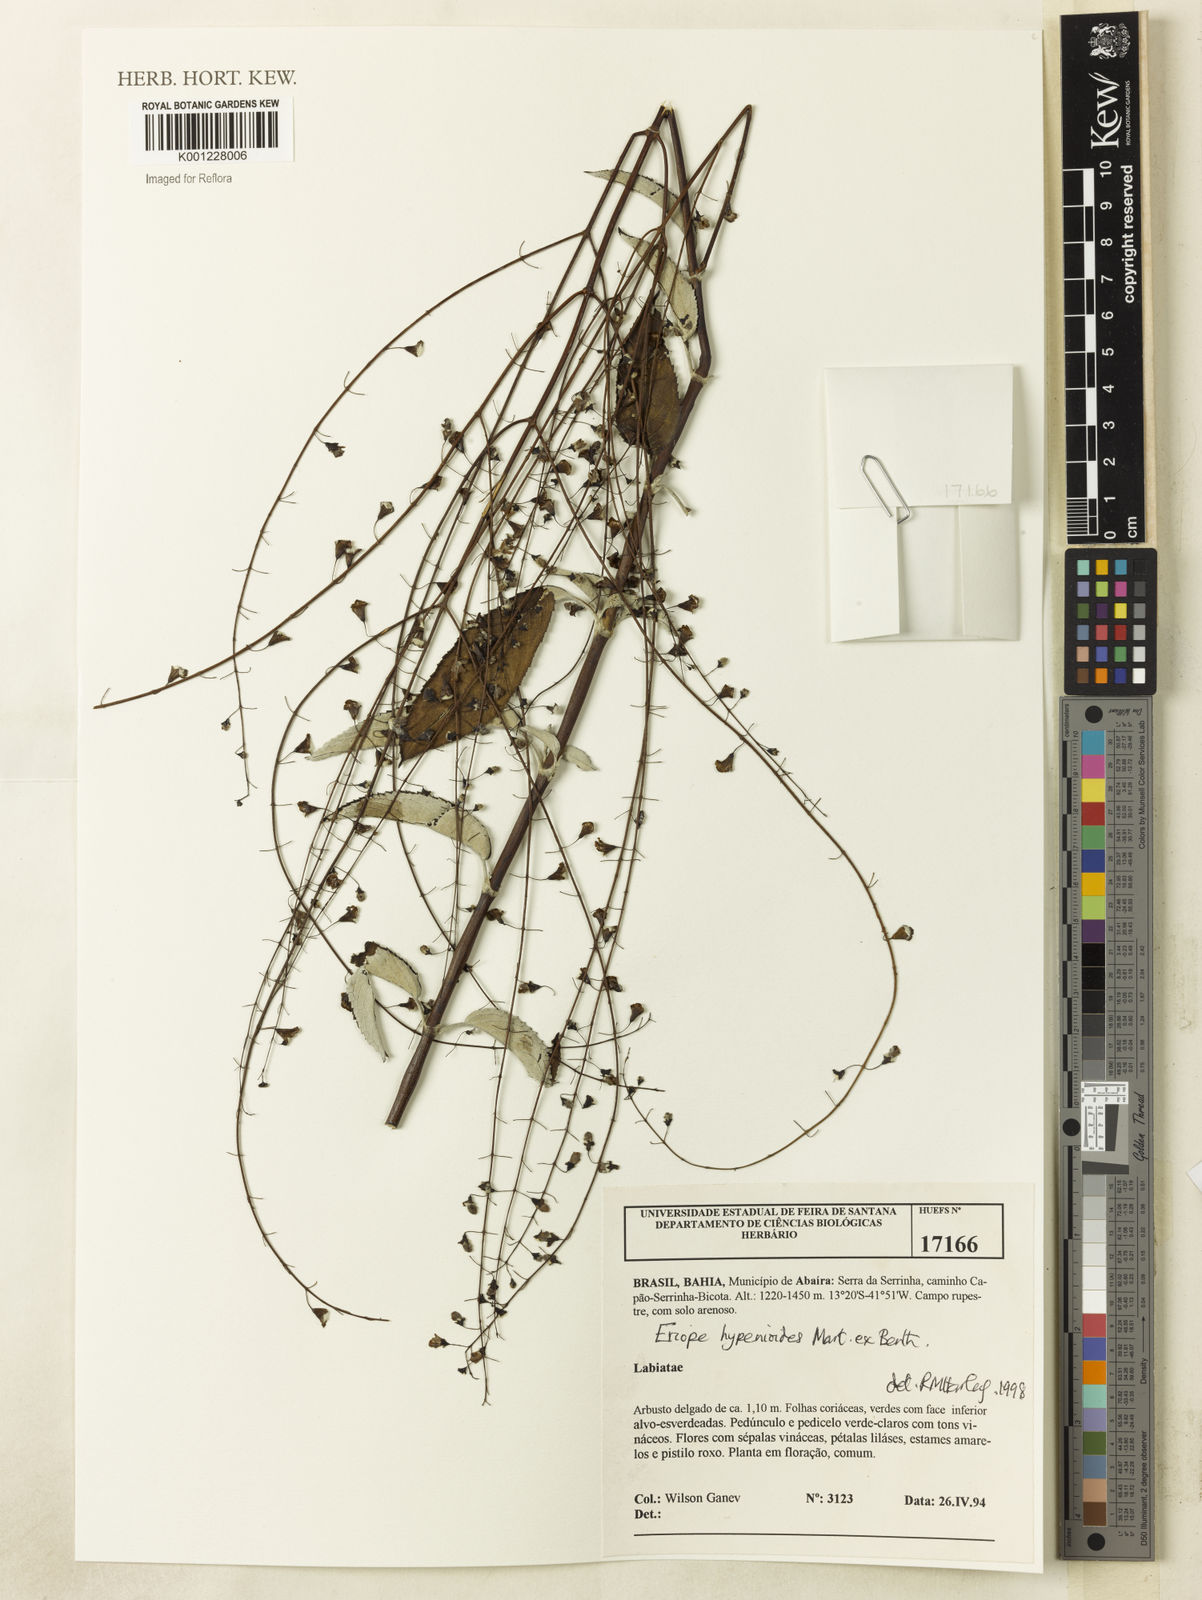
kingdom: Plantae
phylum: Tracheophyta
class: Magnoliopsida
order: Lamiales
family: Lamiaceae
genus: Eriope
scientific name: Eriope hypenioides
